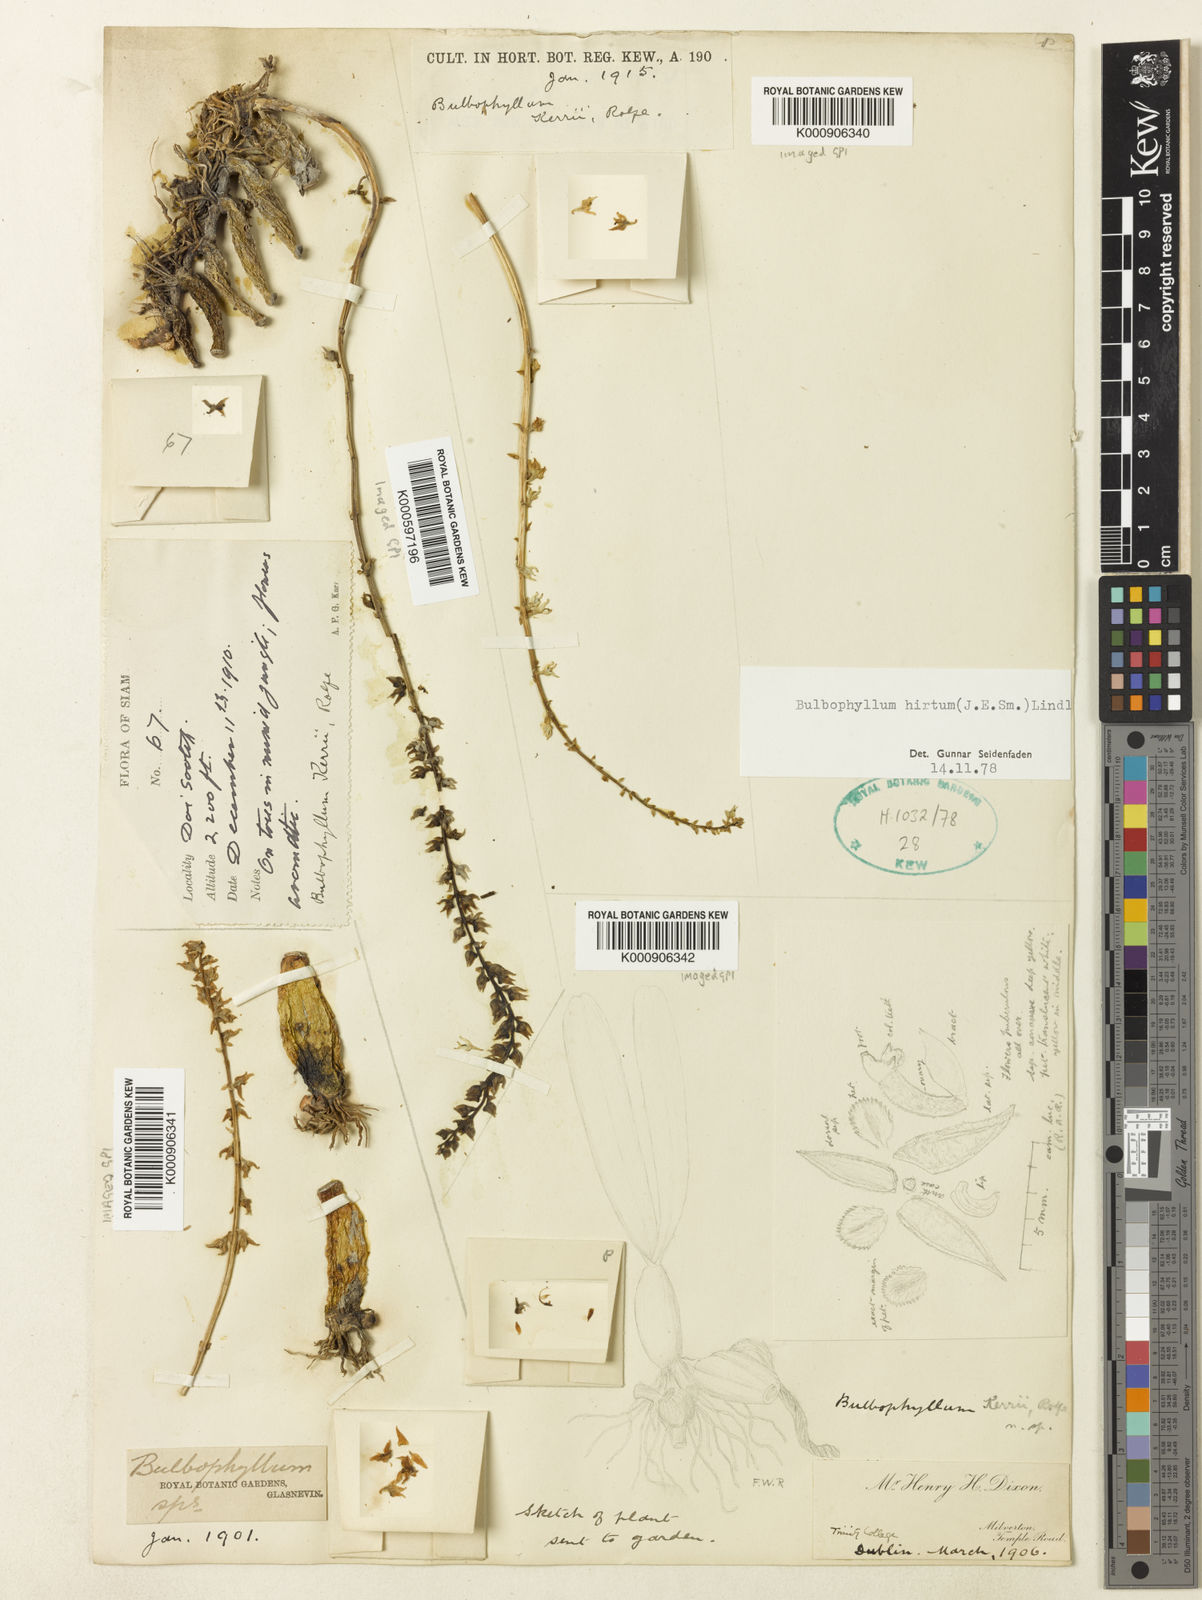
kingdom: Plantae
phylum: Tracheophyta
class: Liliopsida
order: Asparagales
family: Orchidaceae
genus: Bulbophyllum
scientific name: Bulbophyllum
